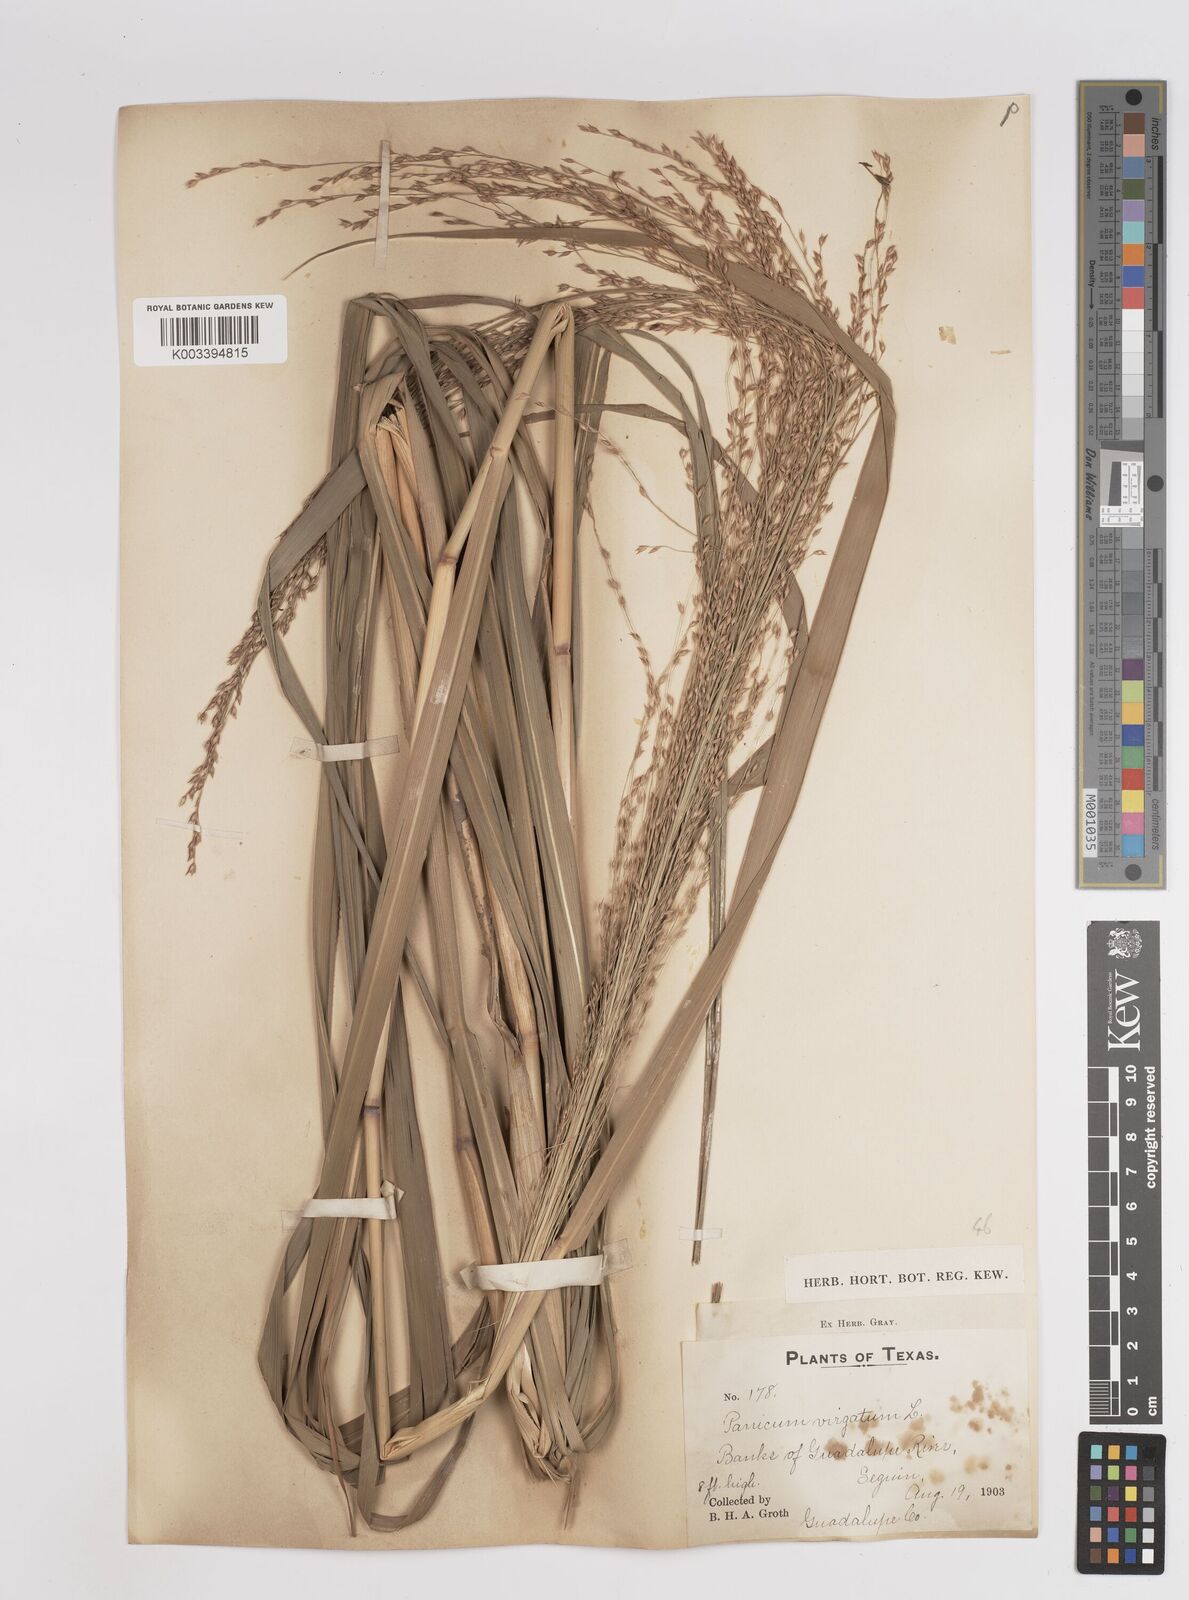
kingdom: Plantae
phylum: Tracheophyta
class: Liliopsida
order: Poales
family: Poaceae
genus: Panicum
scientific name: Panicum virgatum
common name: Switchgrass
